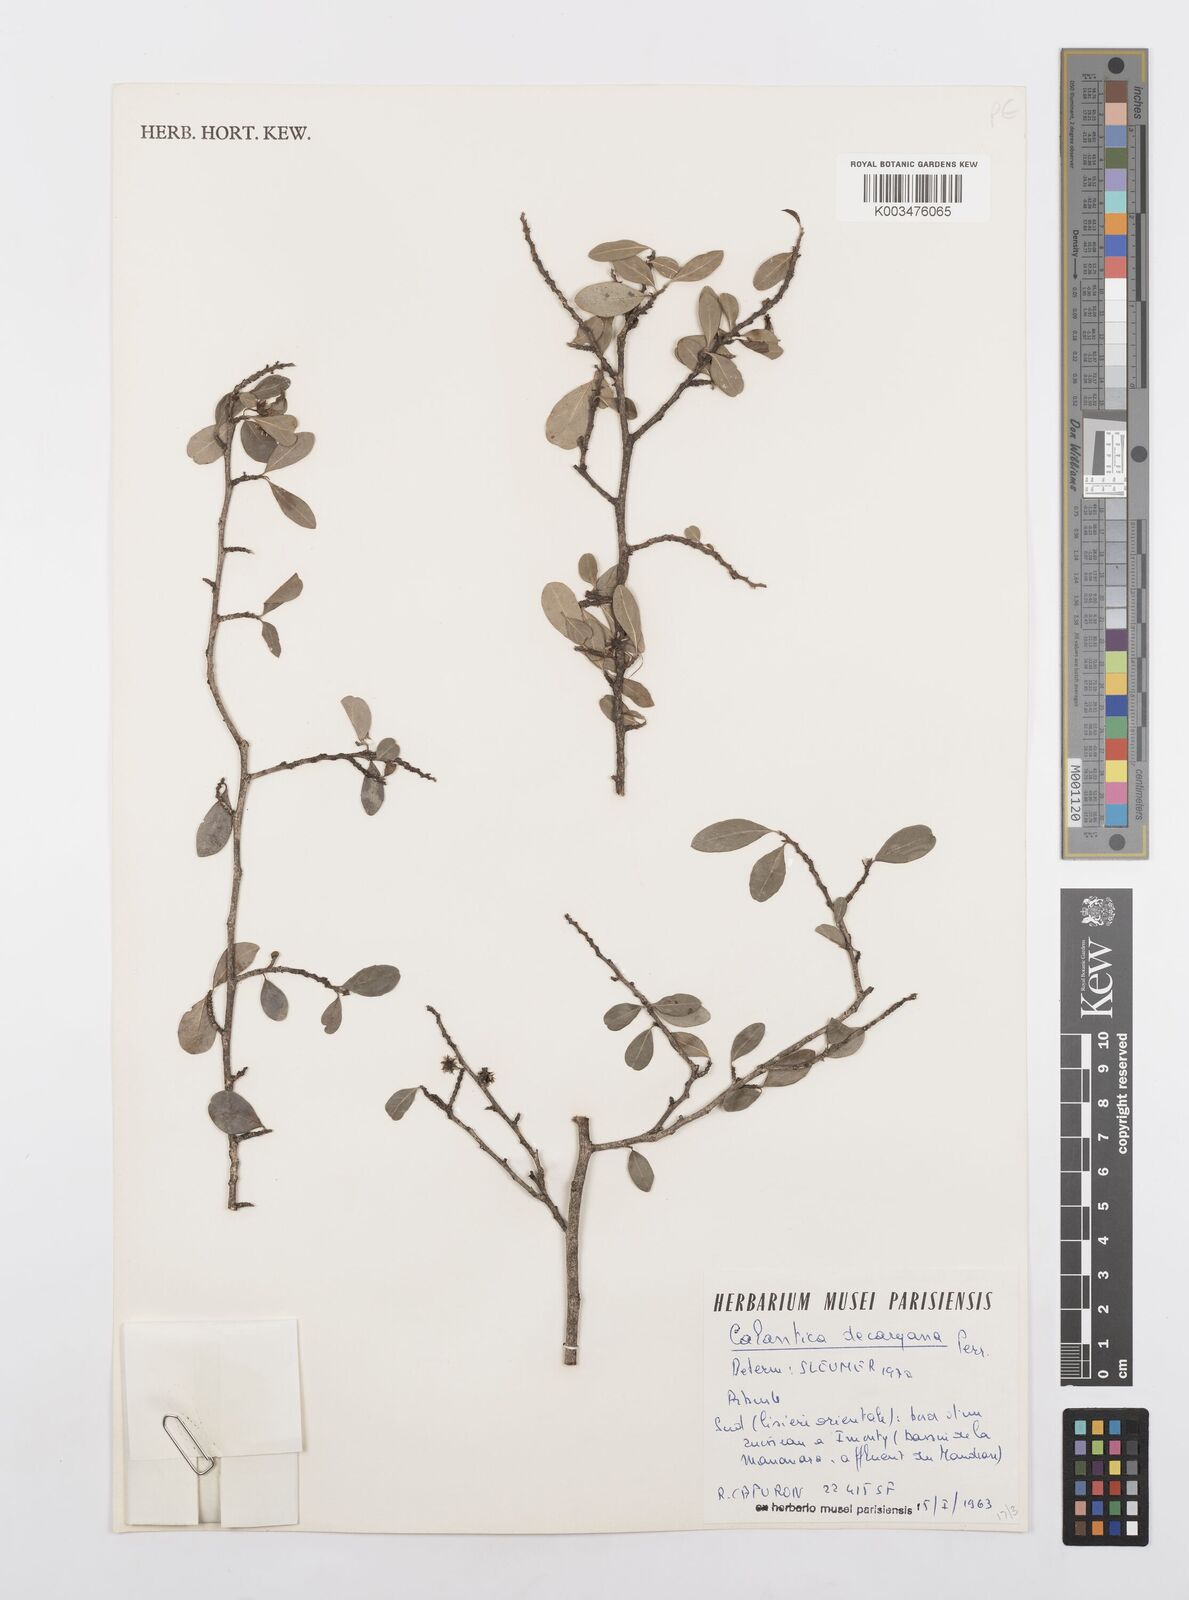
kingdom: Plantae
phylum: Tracheophyta
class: Magnoliopsida
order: Malpighiales
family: Salicaceae
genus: Calantica
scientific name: Calantica decaryana
